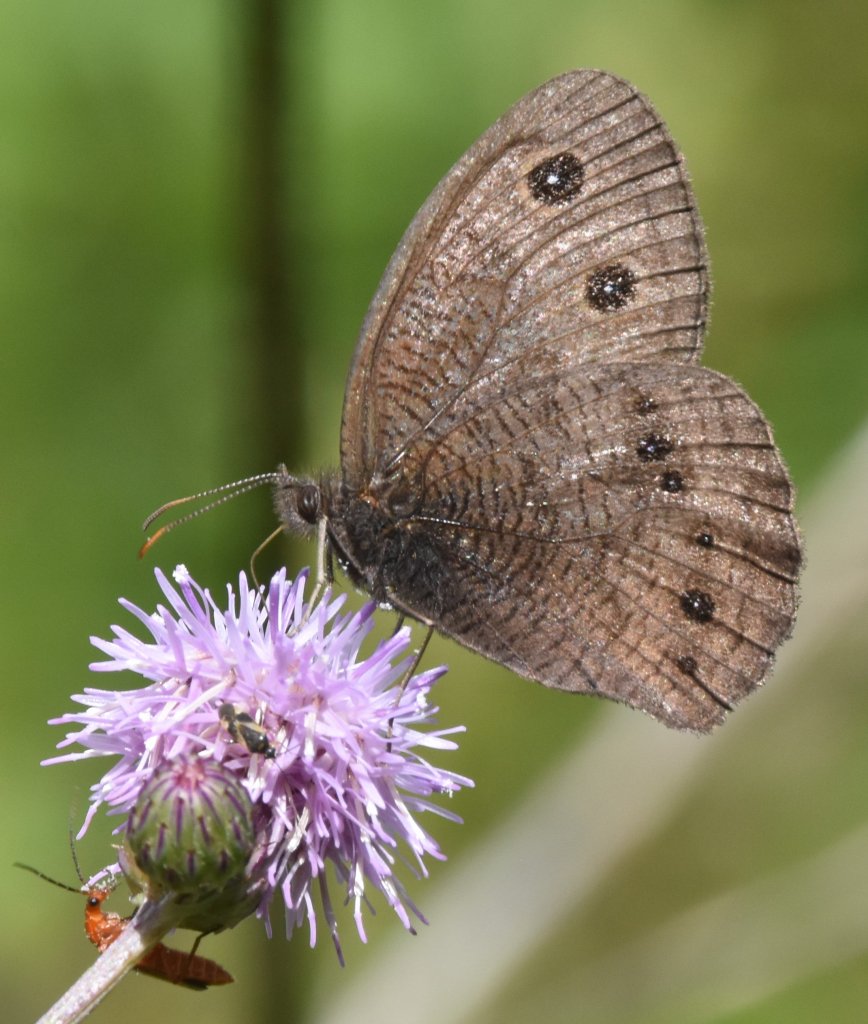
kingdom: Animalia
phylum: Arthropoda
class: Insecta
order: Lepidoptera
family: Nymphalidae
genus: Cercyonis
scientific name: Cercyonis pegala
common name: Common Wood-Nymph
